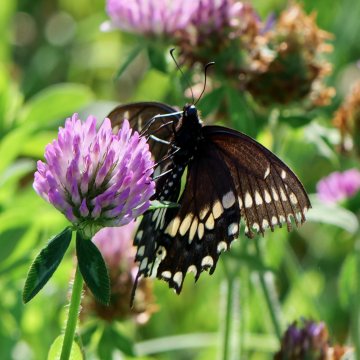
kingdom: Animalia
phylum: Arthropoda
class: Insecta
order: Lepidoptera
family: Papilionidae
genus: Papilio
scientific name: Papilio polyxenes
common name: Black Swallowtail
